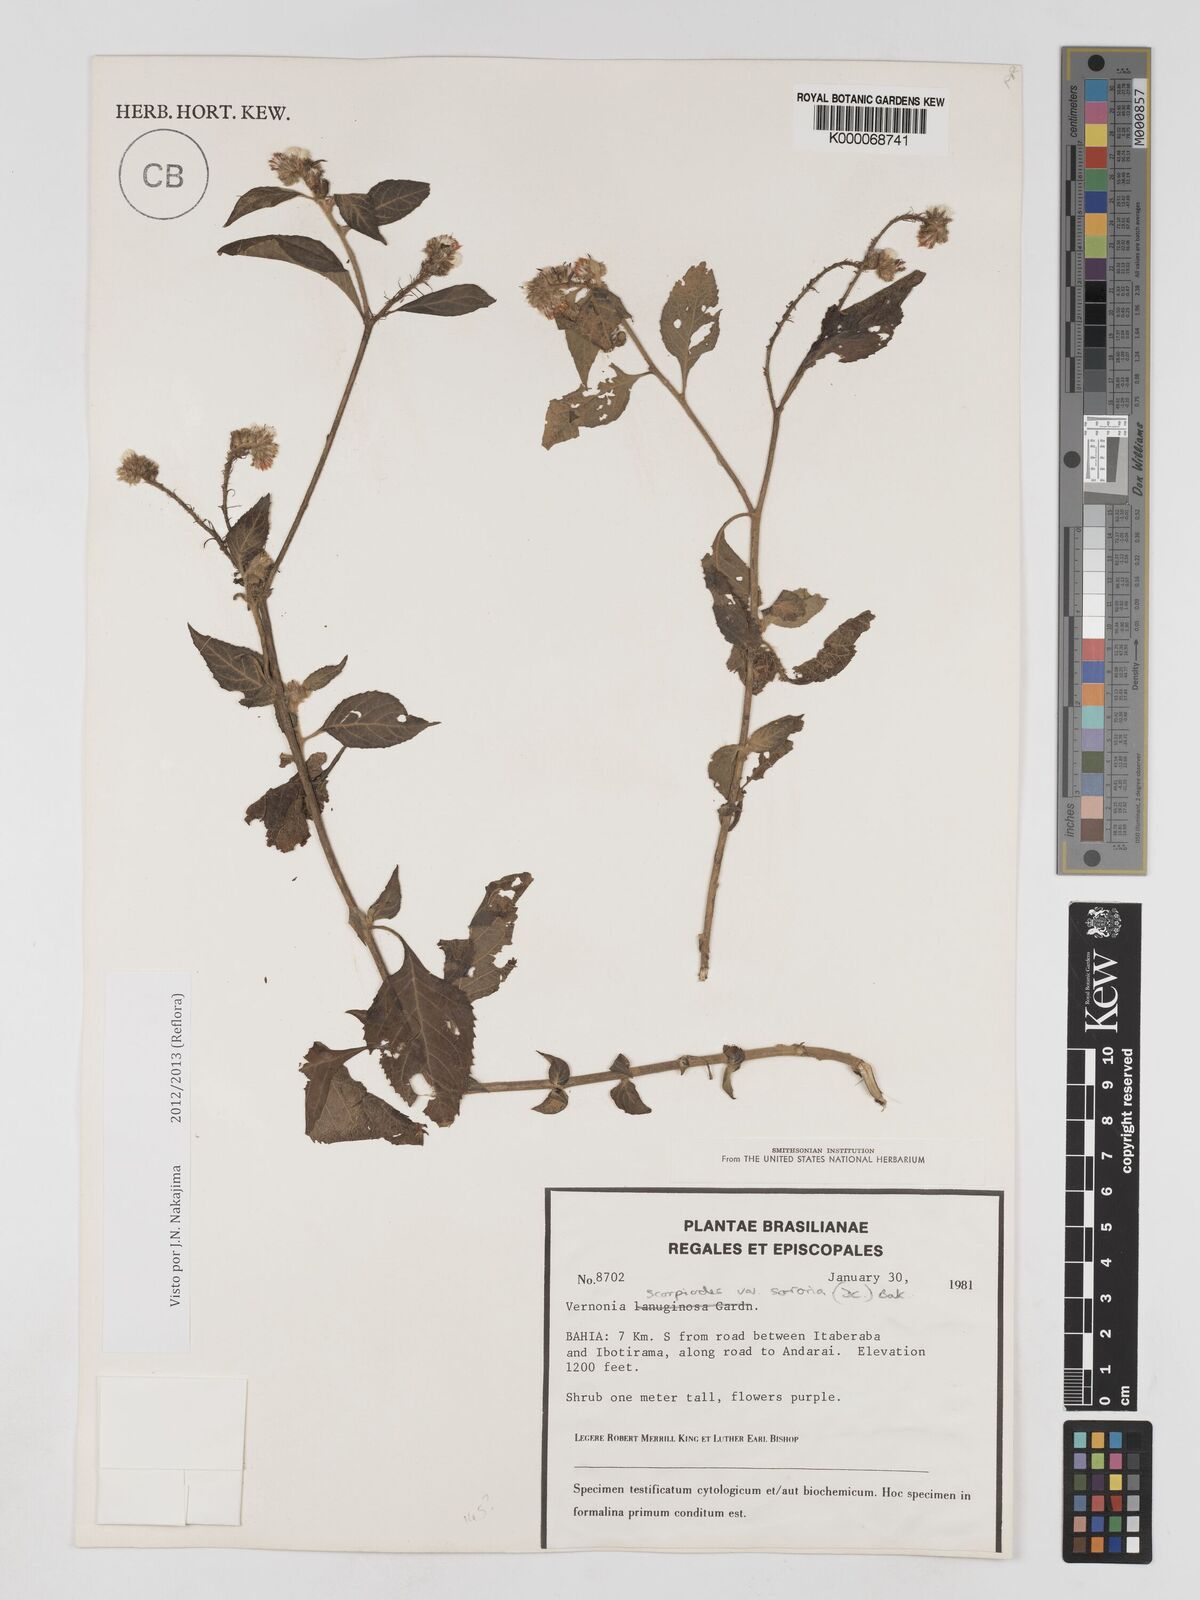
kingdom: Plantae
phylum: Tracheophyta
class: Magnoliopsida
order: Asterales
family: Asteraceae
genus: Cyrtocymura
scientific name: Cyrtocymura scorpioides
